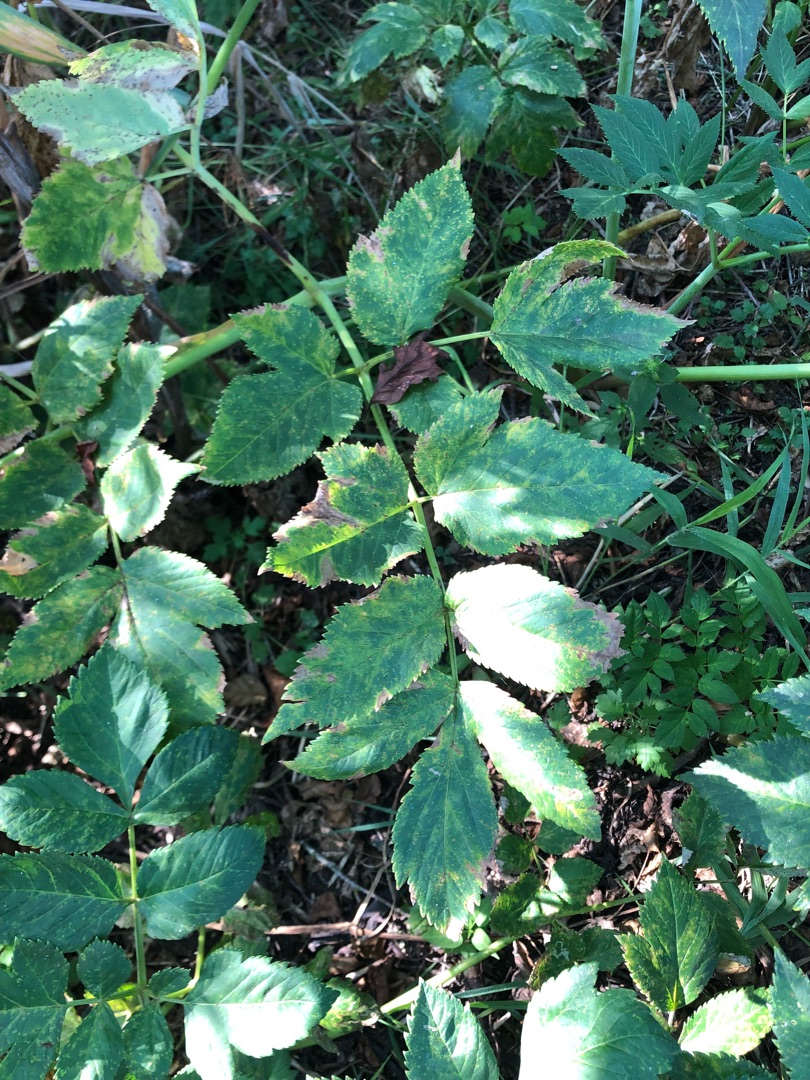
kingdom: Plantae
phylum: Tracheophyta
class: Magnoliopsida
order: Apiales
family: Apiaceae
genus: Angelica
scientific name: Angelica archangelica
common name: Kvan
